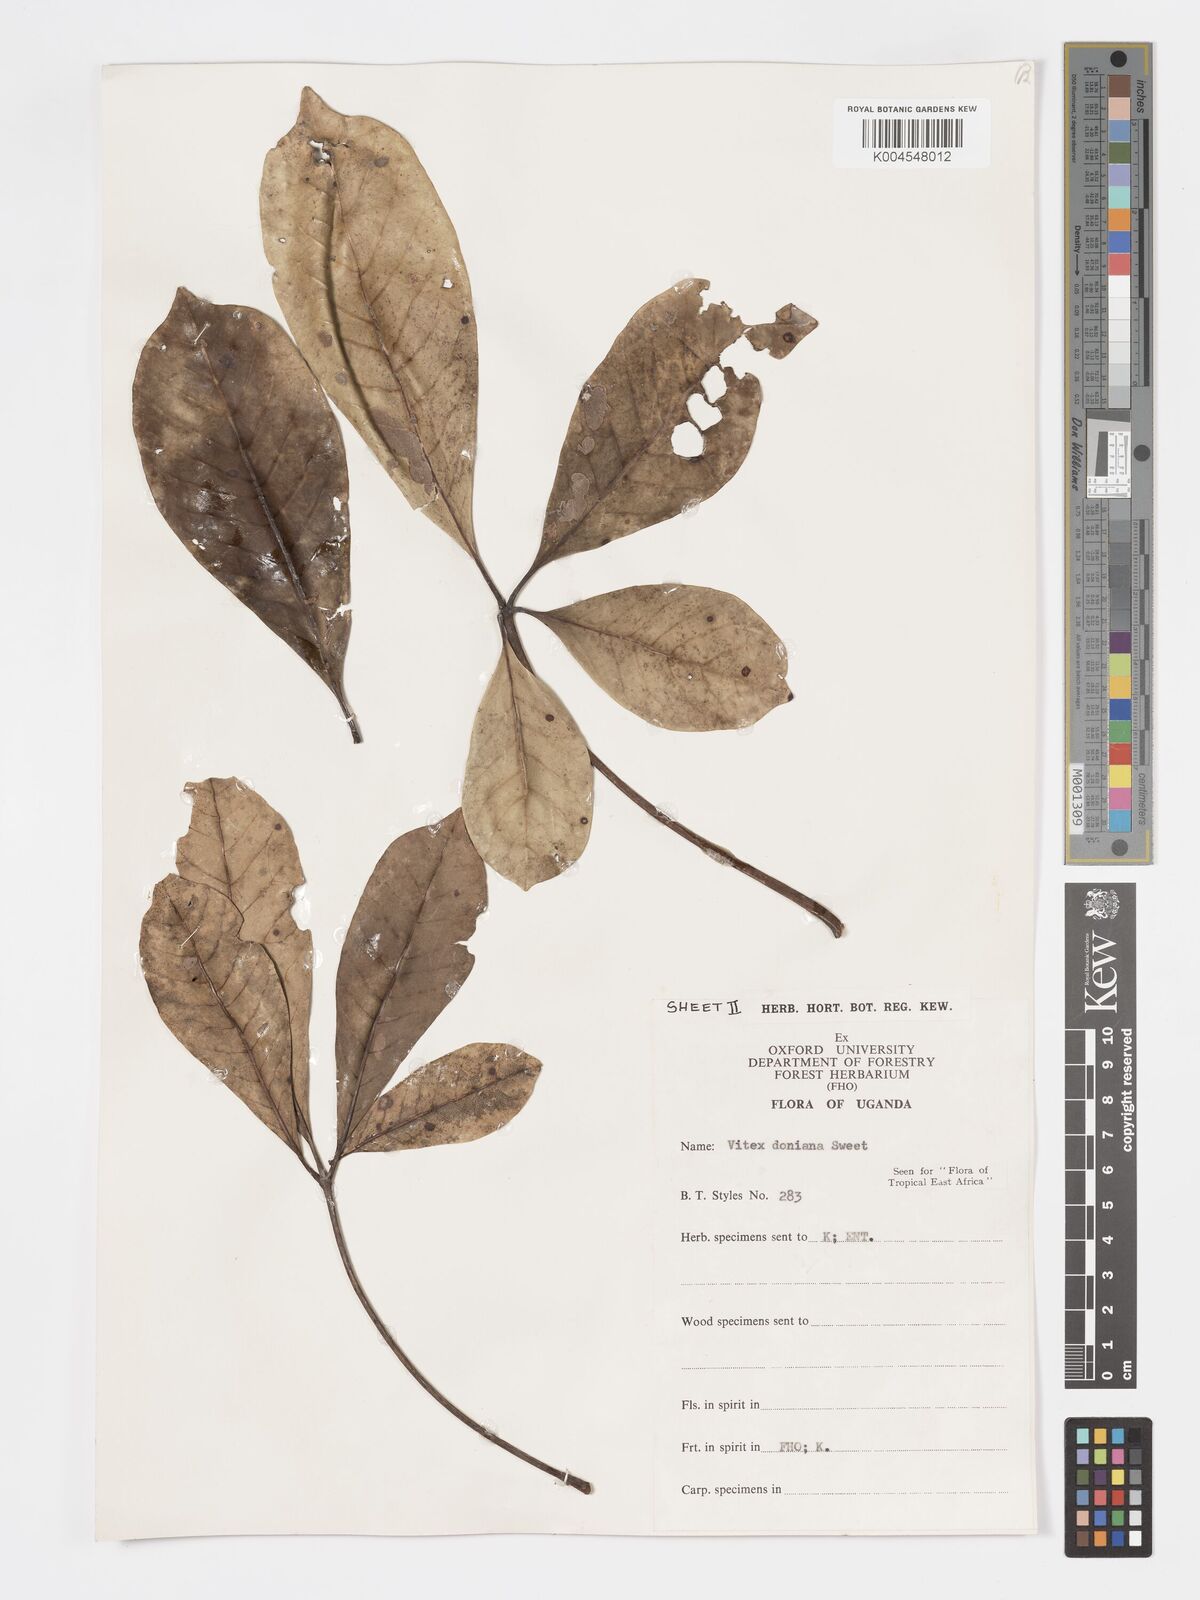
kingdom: Plantae
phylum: Tracheophyta
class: Magnoliopsida
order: Lamiales
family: Lamiaceae
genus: Vitex
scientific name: Vitex doniana
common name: Black plum
